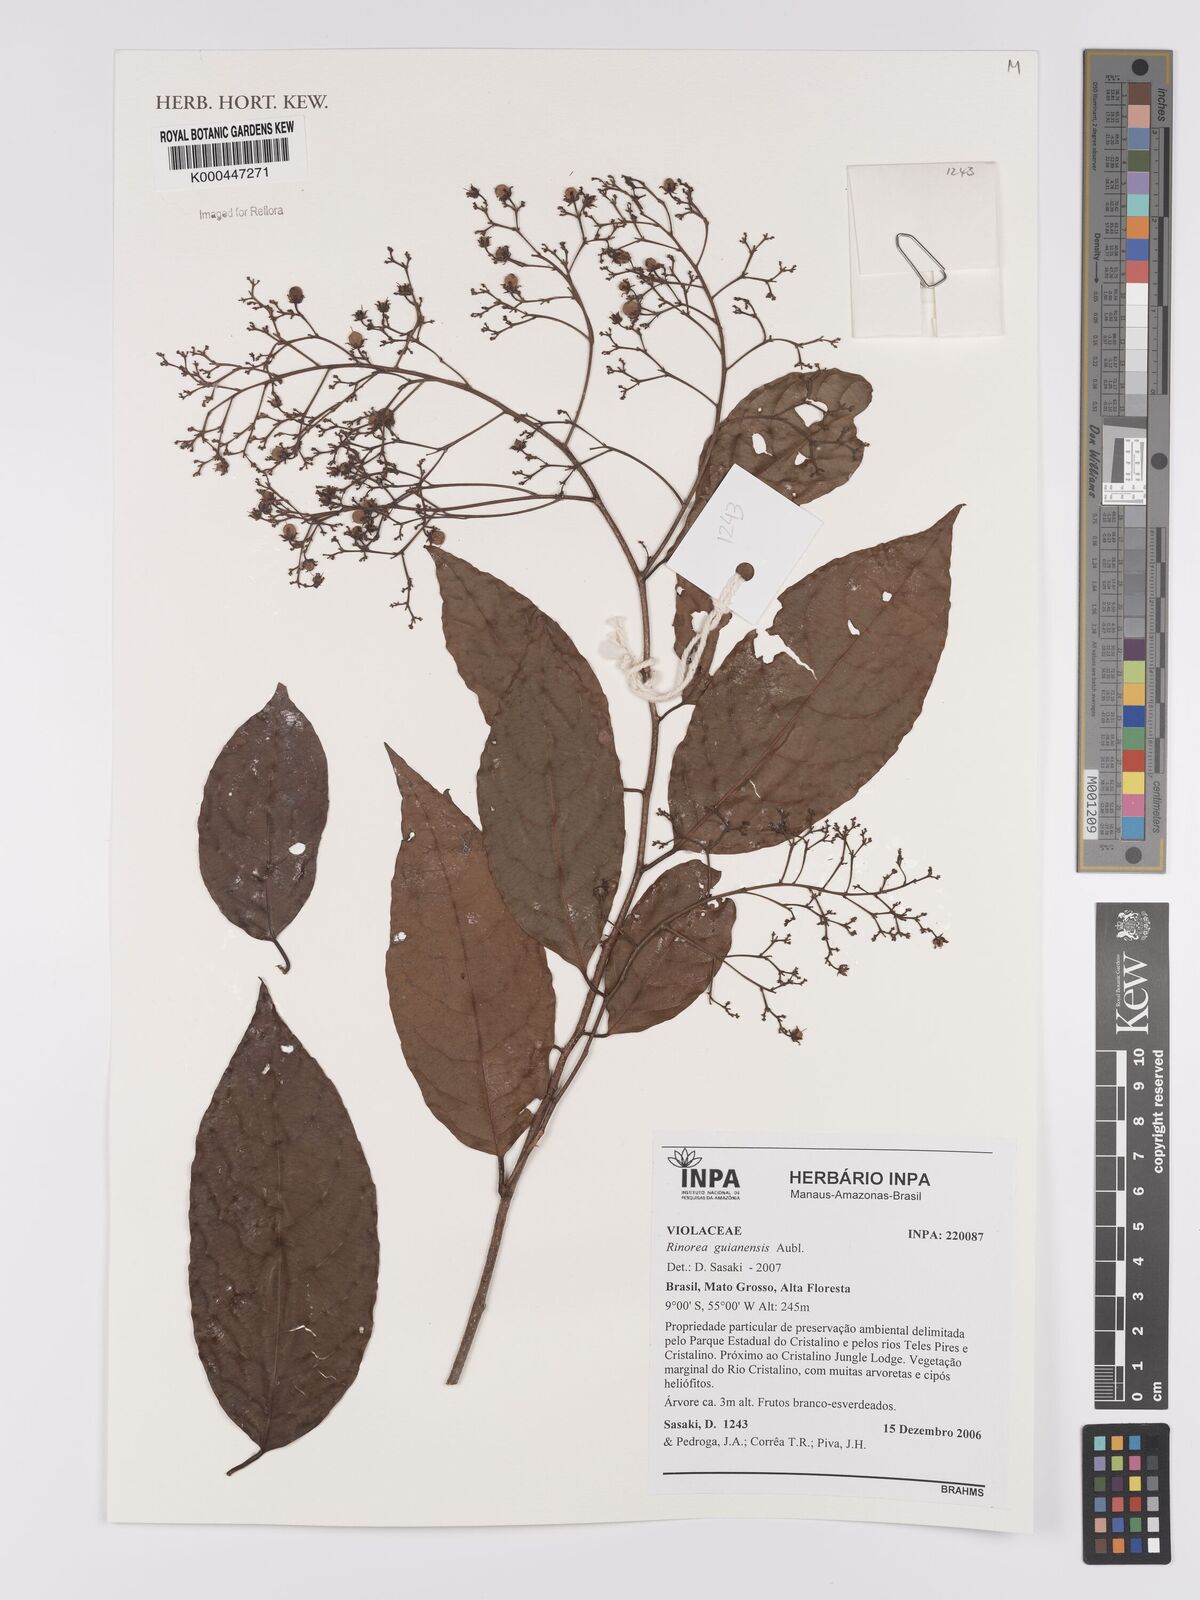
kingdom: Plantae
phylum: Tracheophyta
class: Magnoliopsida
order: Malpighiales
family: Violaceae
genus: Rinorea
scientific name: Rinorea guianensis
